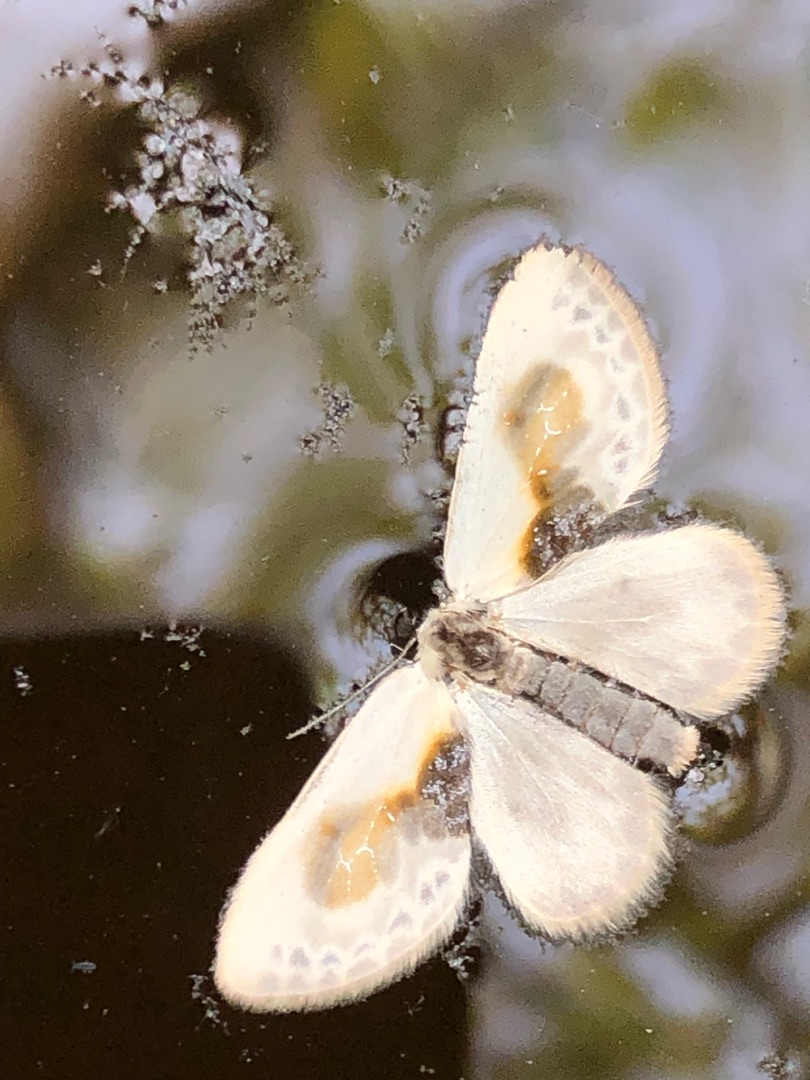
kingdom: Animalia
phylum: Arthropoda
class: Insecta
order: Lepidoptera
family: Drepanidae
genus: Cilix
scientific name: Cilix glaucata
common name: Silkevinge
